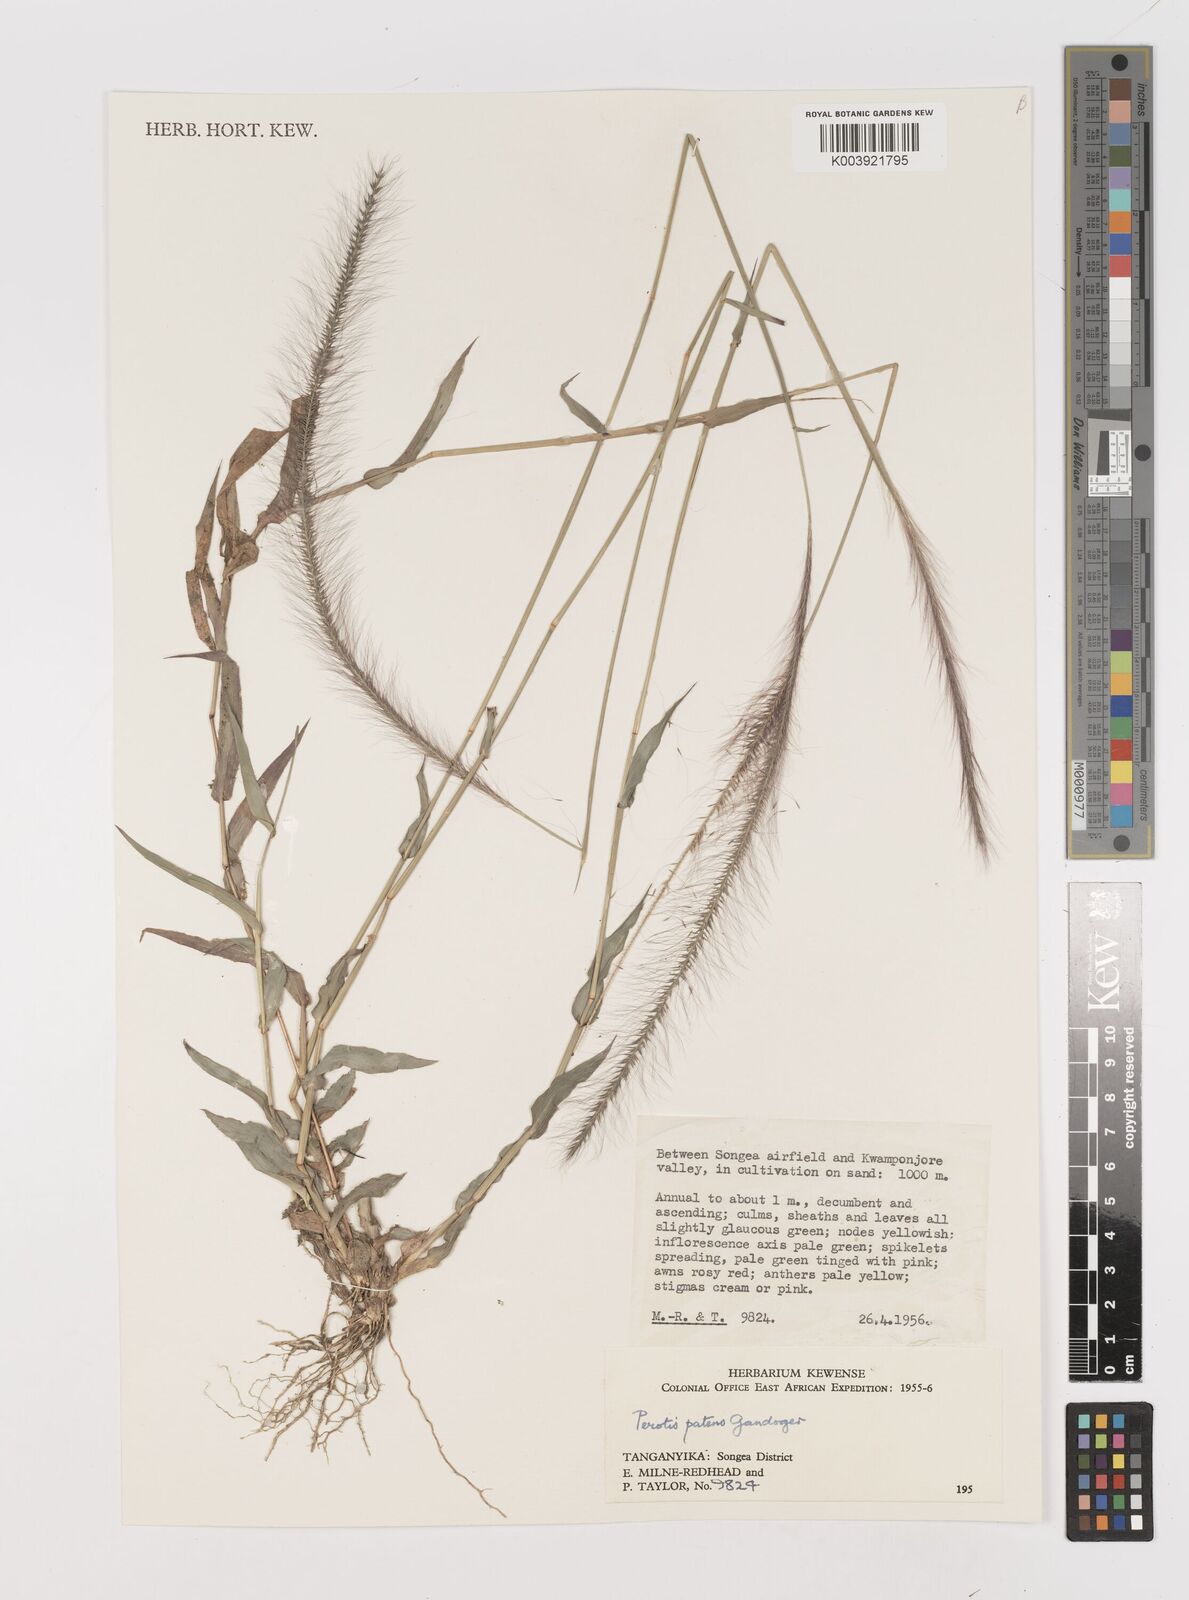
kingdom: Plantae
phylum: Tracheophyta
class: Liliopsida
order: Poales
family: Poaceae
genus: Perotis
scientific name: Perotis patens
